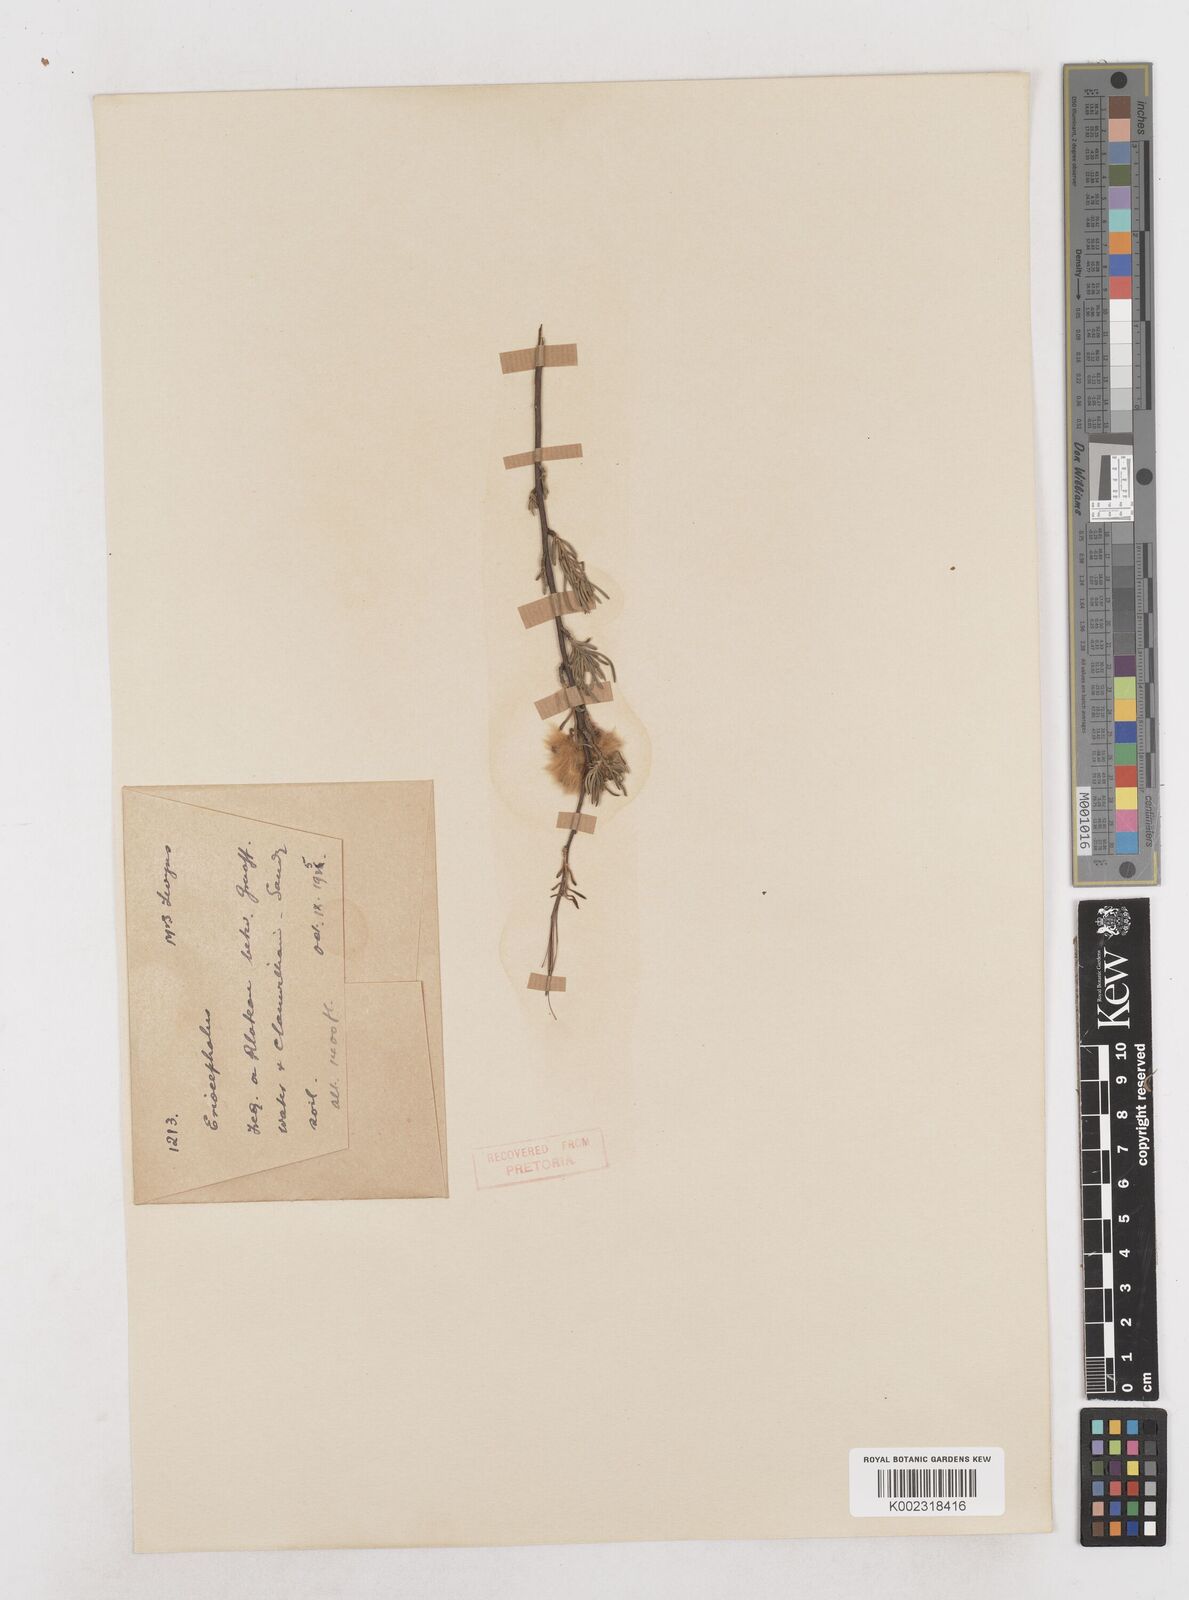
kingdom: Plantae
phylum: Tracheophyta
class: Magnoliopsida
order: Asterales
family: Asteraceae
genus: Eriocephalus
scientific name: Eriocephalus
